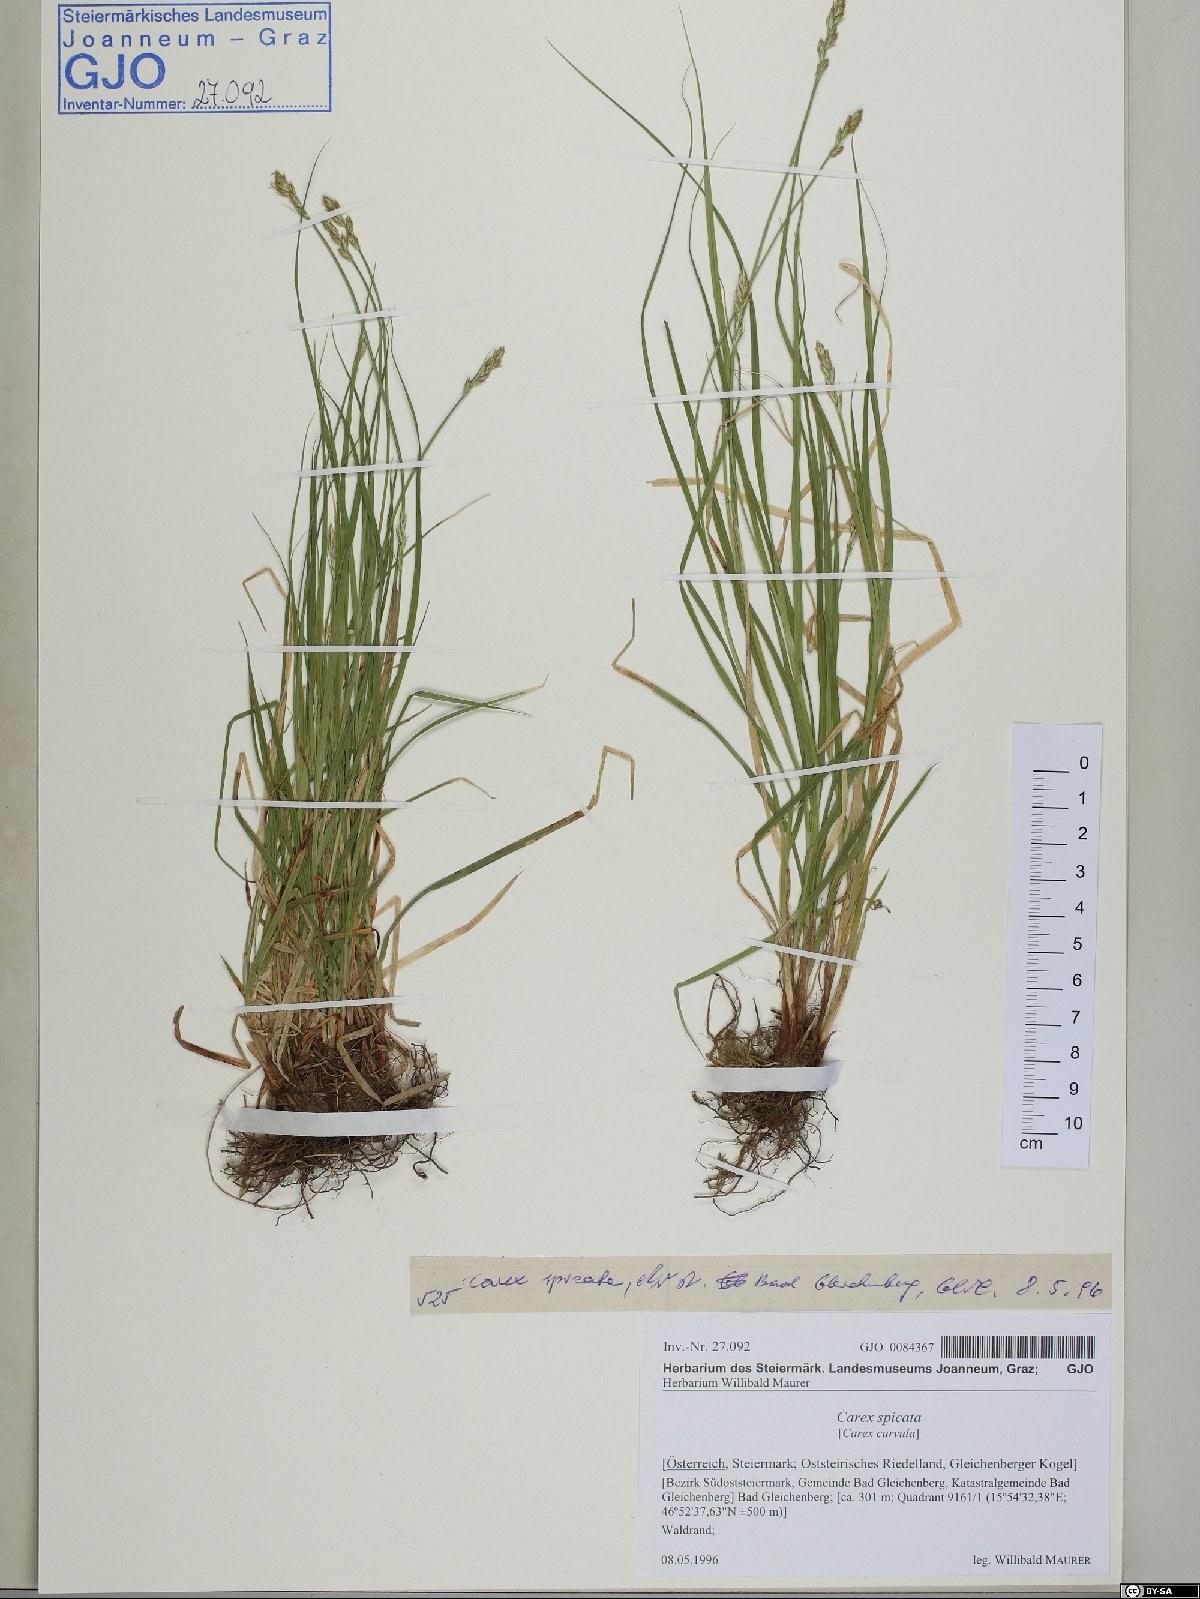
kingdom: Plantae
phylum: Tracheophyta
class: Liliopsida
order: Poales
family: Cyperaceae
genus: Carex
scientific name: Carex spicata
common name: Spiked sedge
